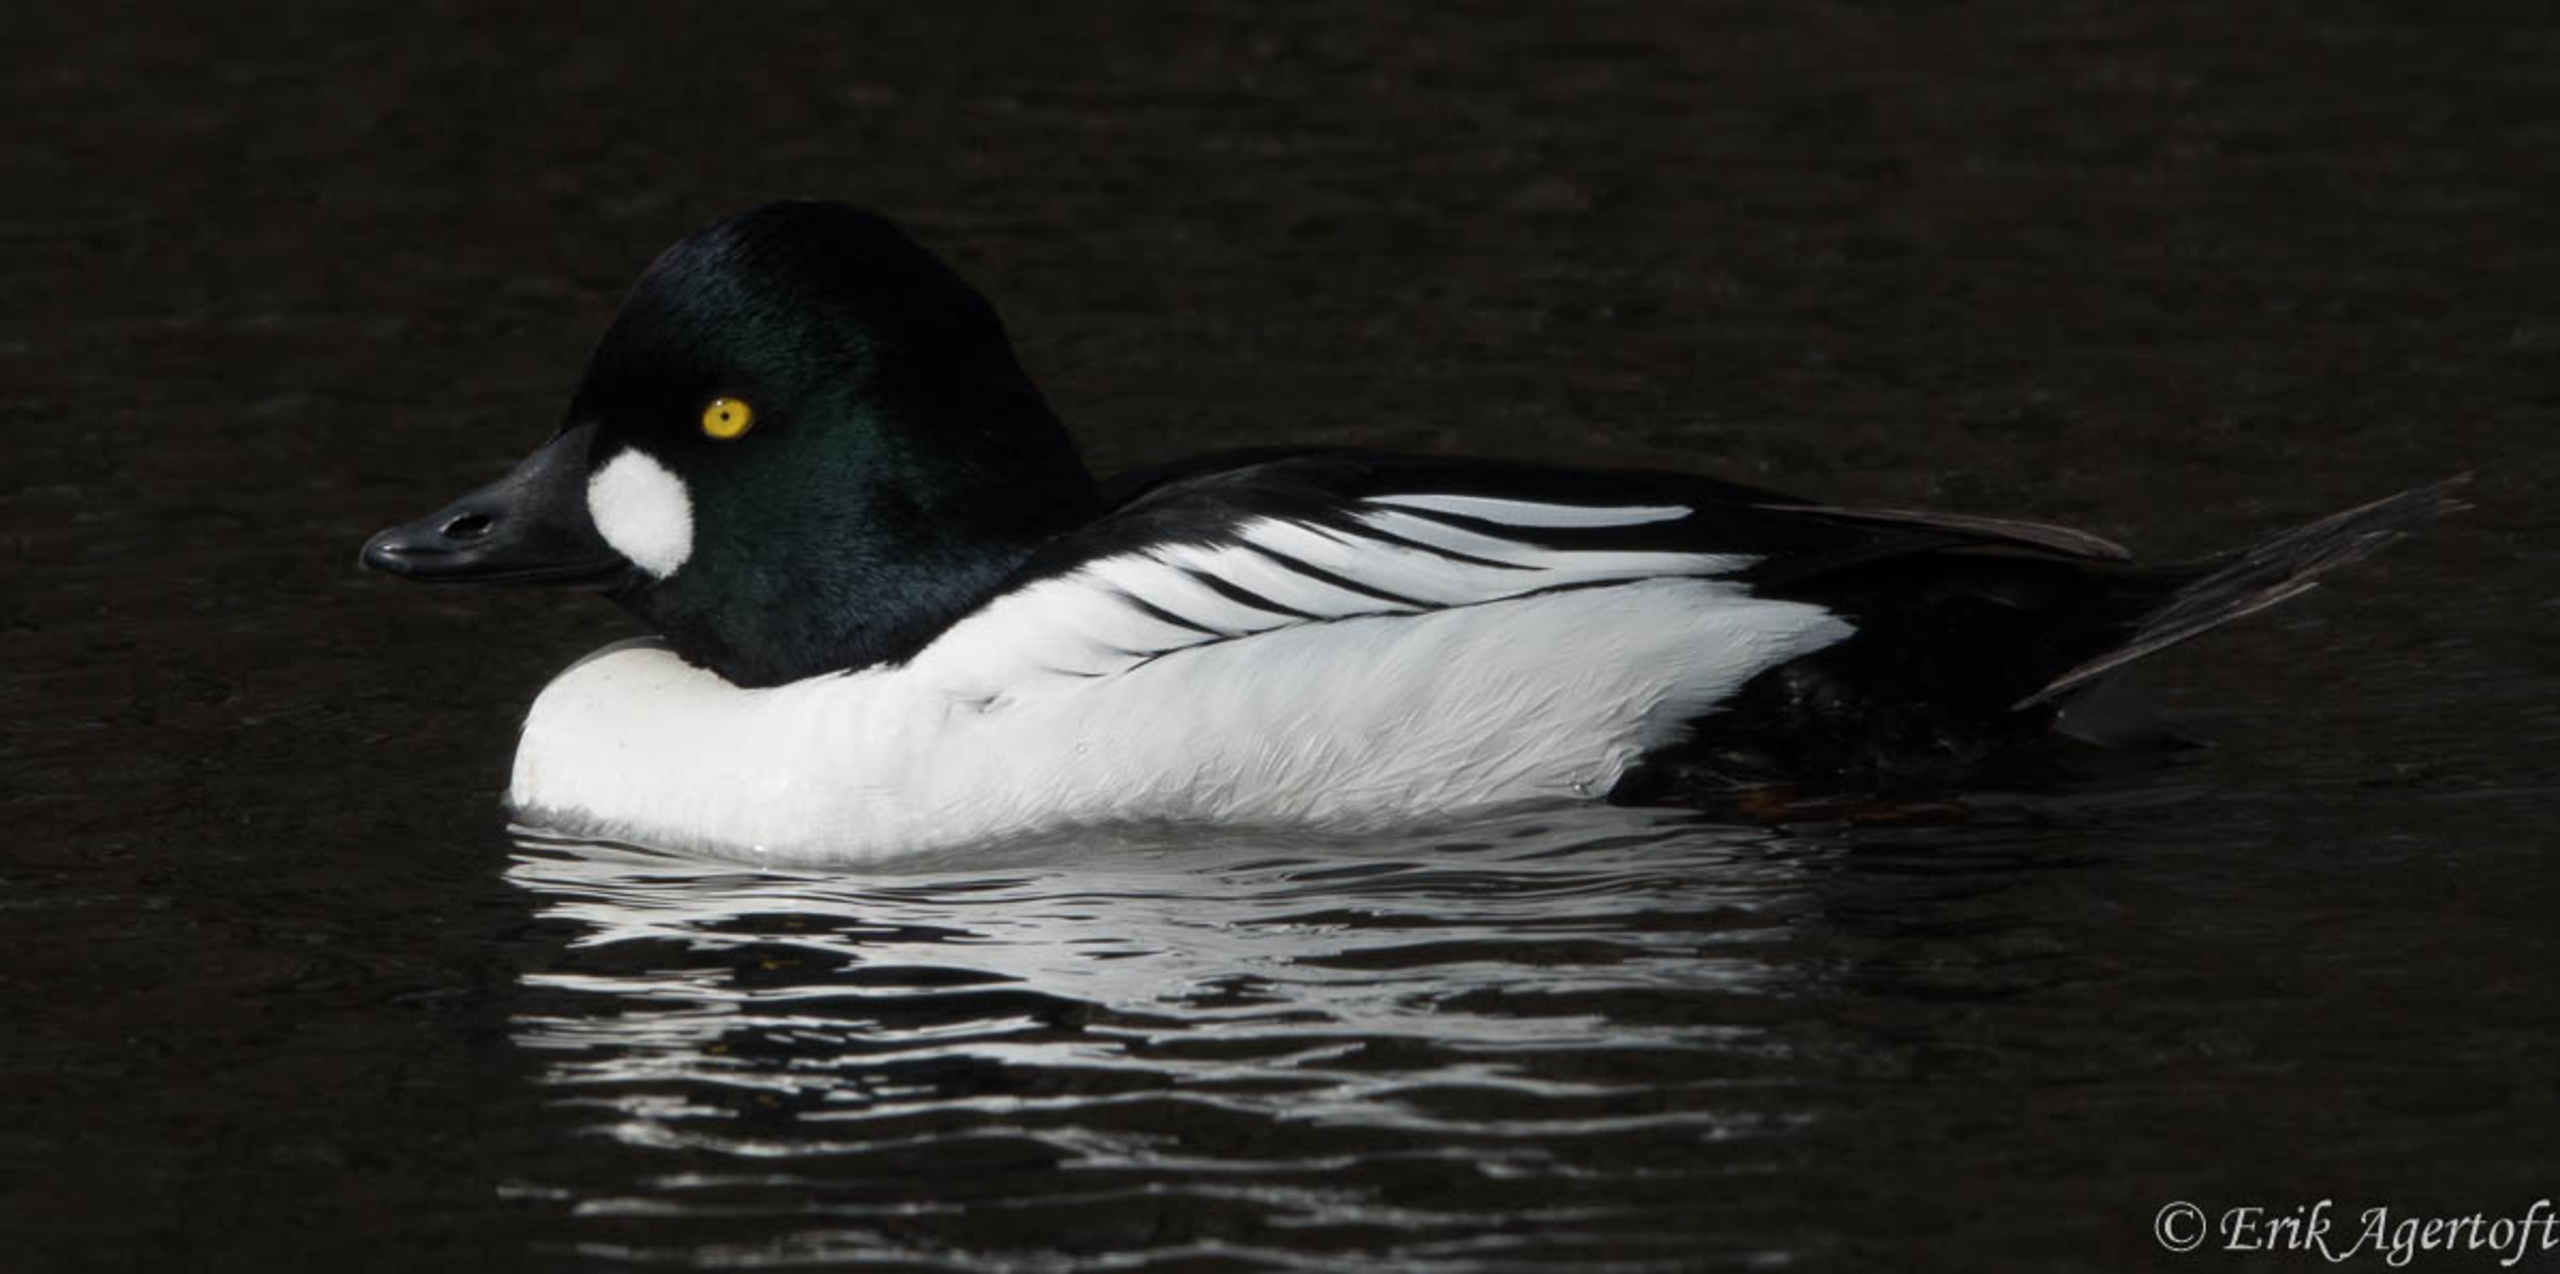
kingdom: Animalia
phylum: Chordata
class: Aves
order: Anseriformes
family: Anatidae
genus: Bucephala
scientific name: Bucephala clangula
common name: Hvinand
